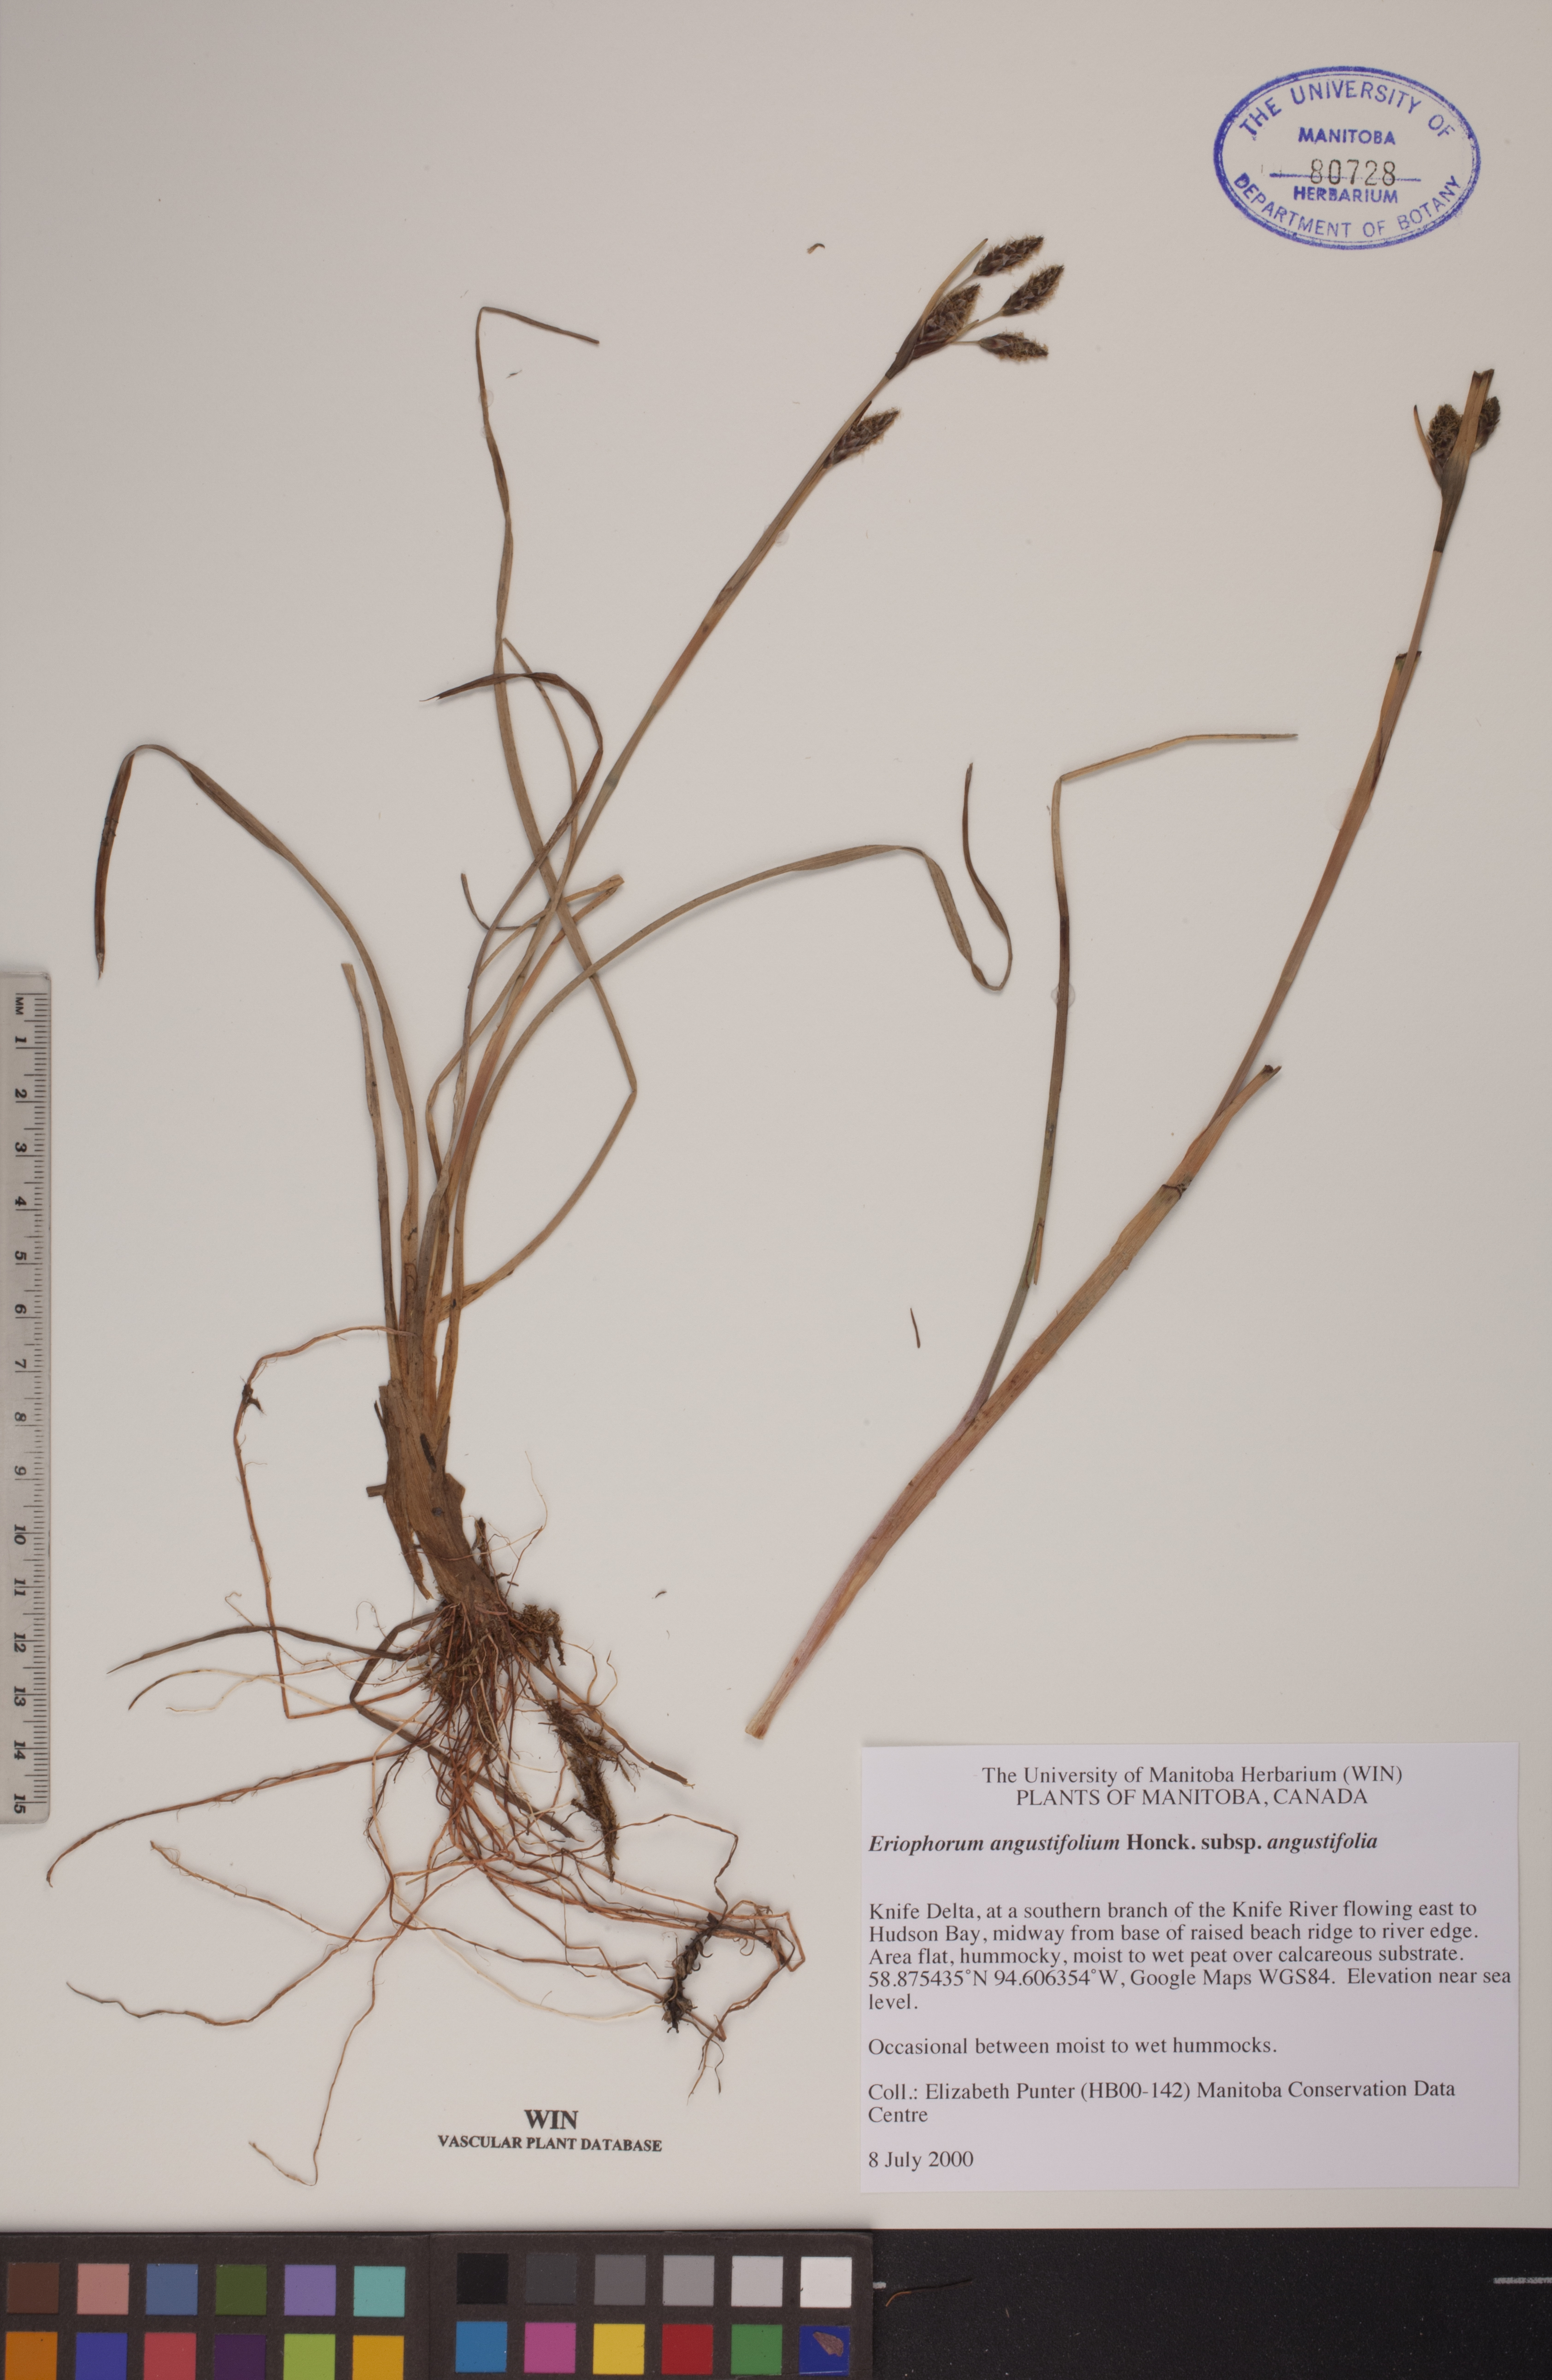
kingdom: Plantae
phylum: Tracheophyta
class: Liliopsida
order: Poales
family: Cyperaceae
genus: Eriophorum
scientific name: Eriophorum angustifolium
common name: Common cottongrass
